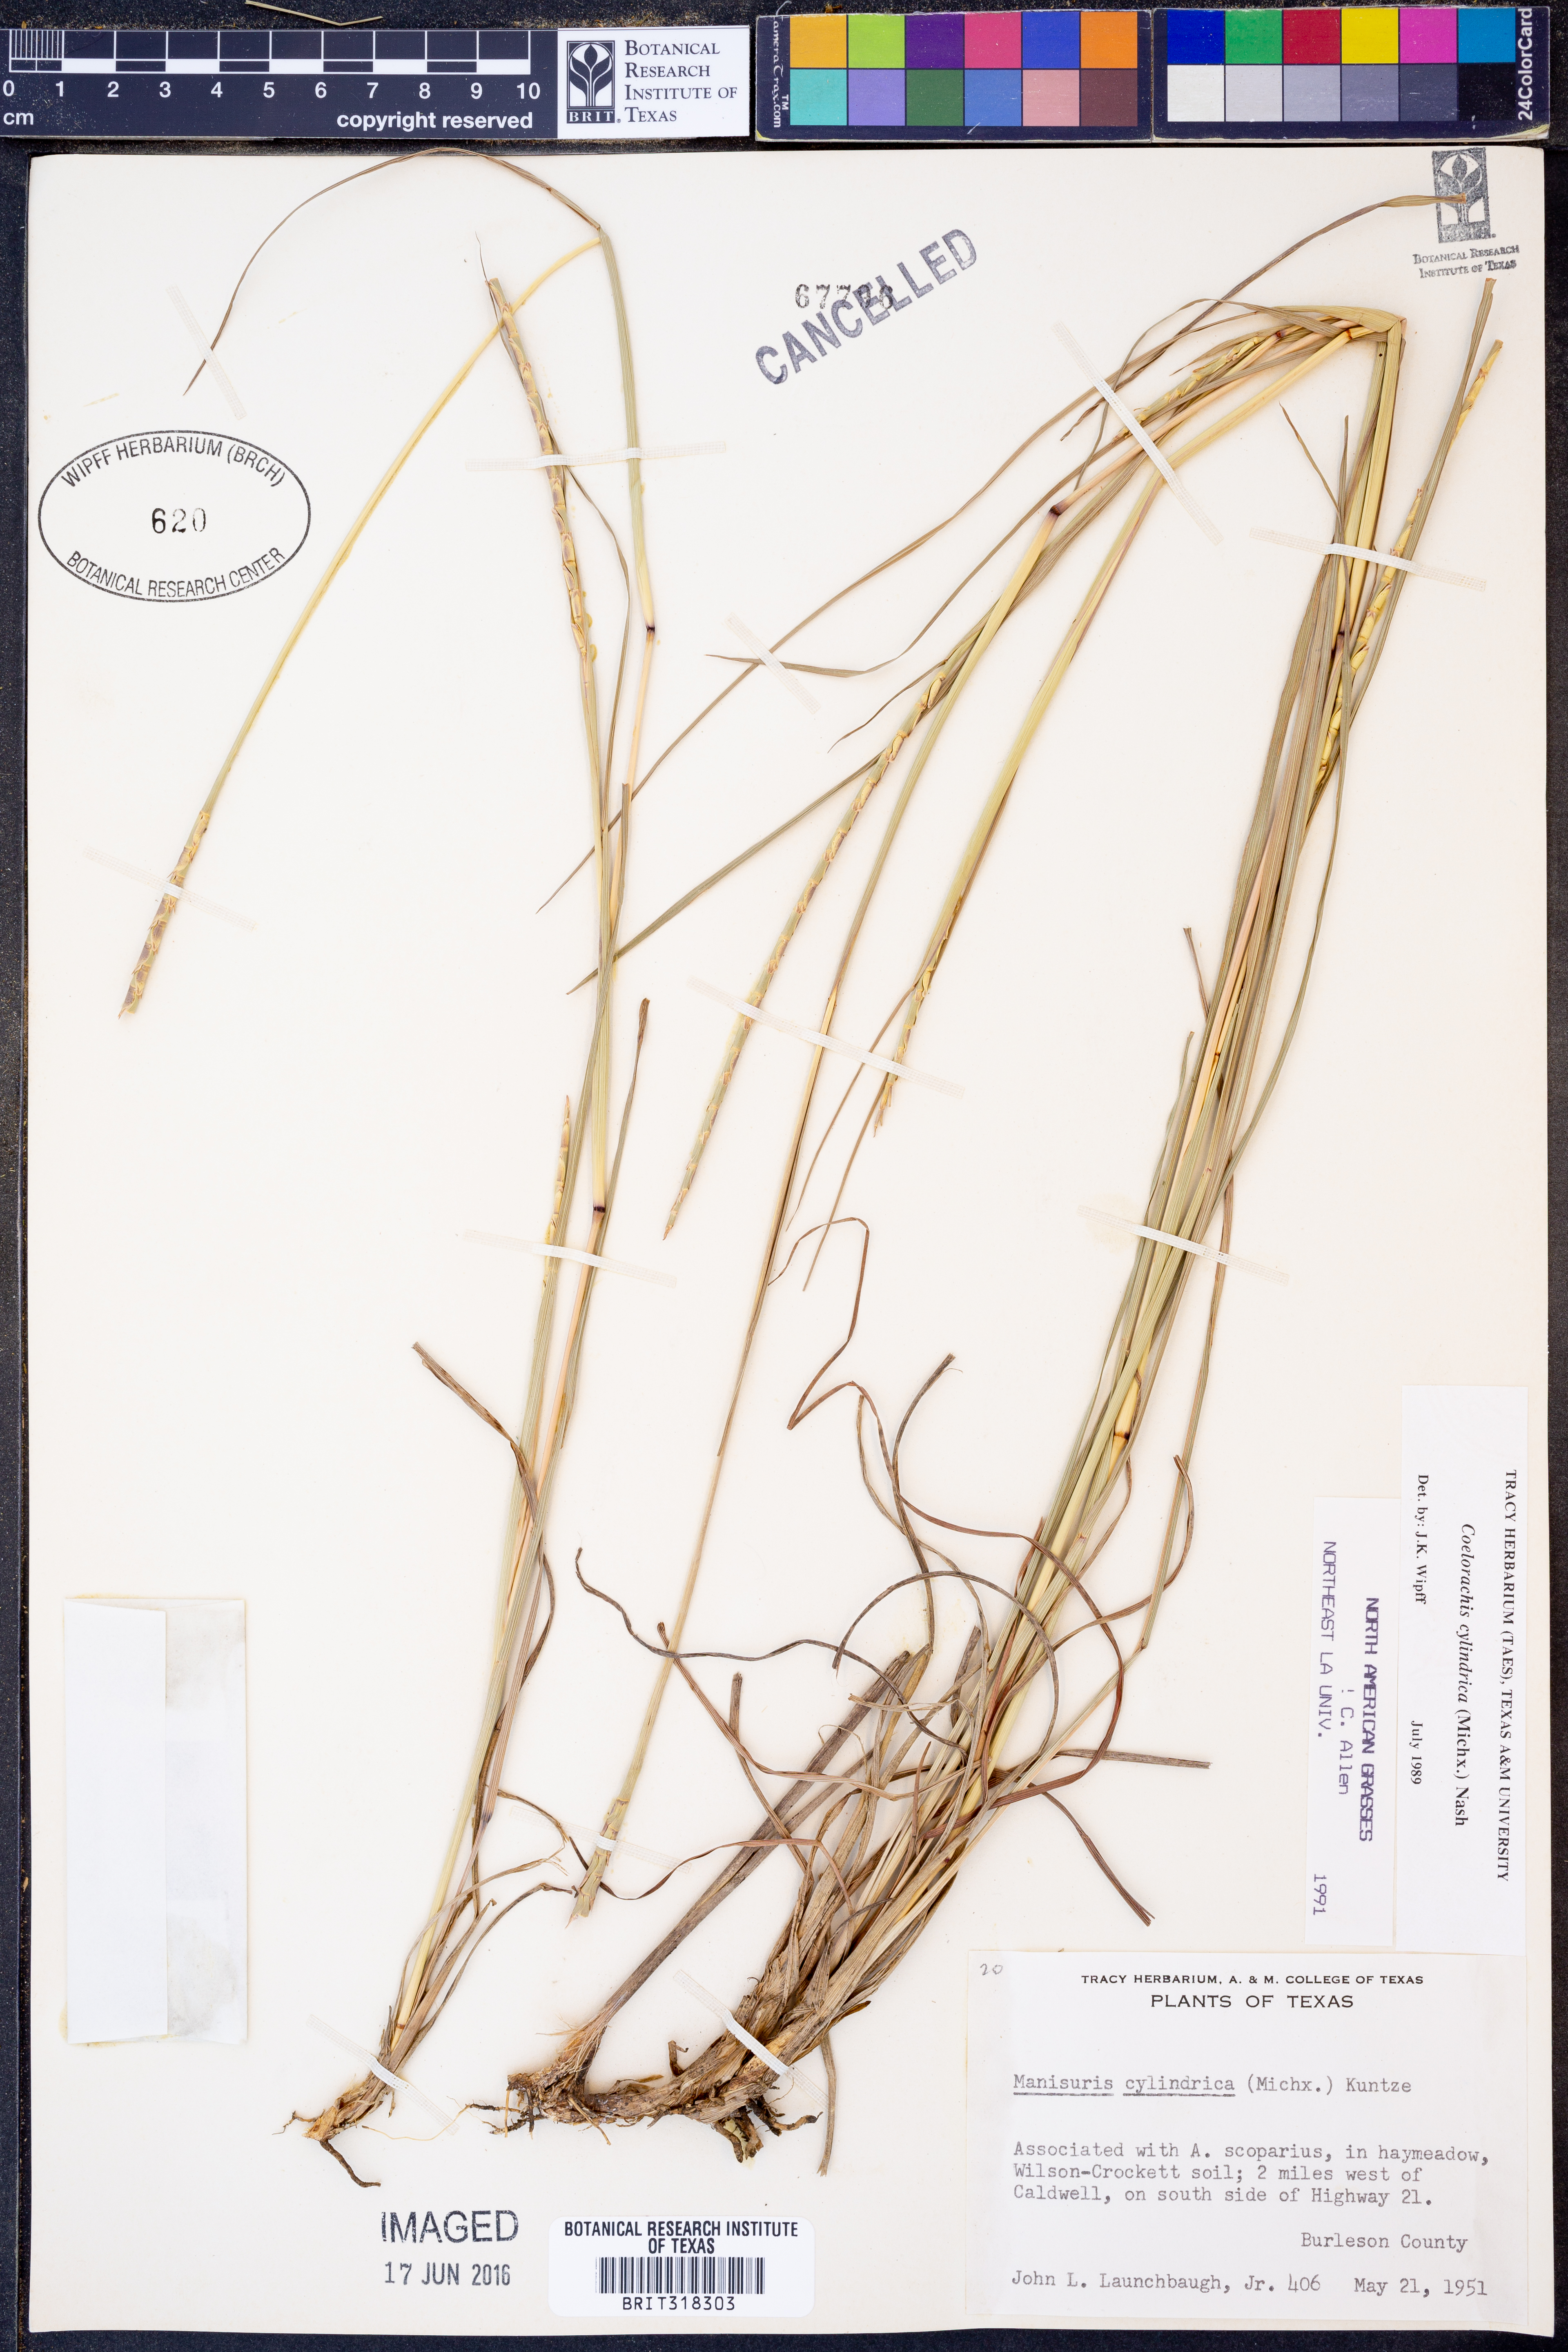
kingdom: Plantae
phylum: Tracheophyta
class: Liliopsida
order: Poales
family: Poaceae
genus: Rottboellia
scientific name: Rottboellia campestris
